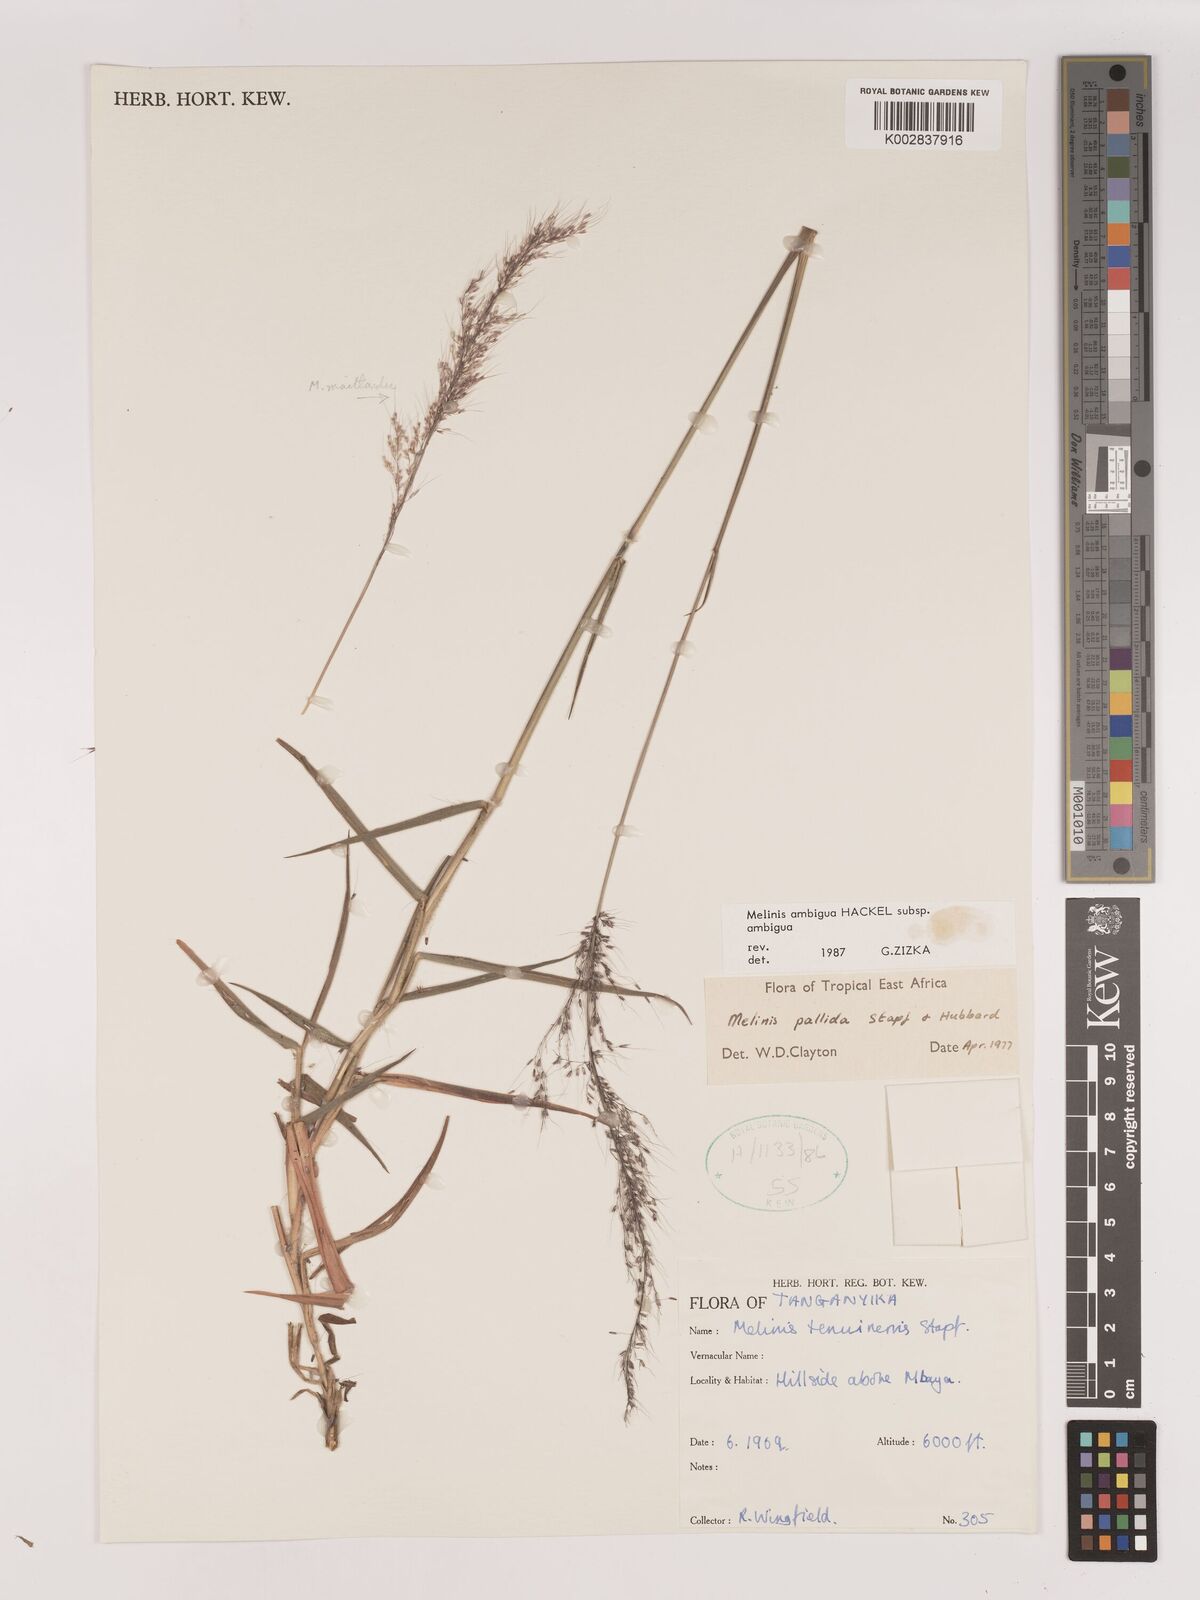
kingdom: Plantae
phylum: Tracheophyta
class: Liliopsida
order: Poales
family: Poaceae
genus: Melinis
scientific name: Melinis ambigua
